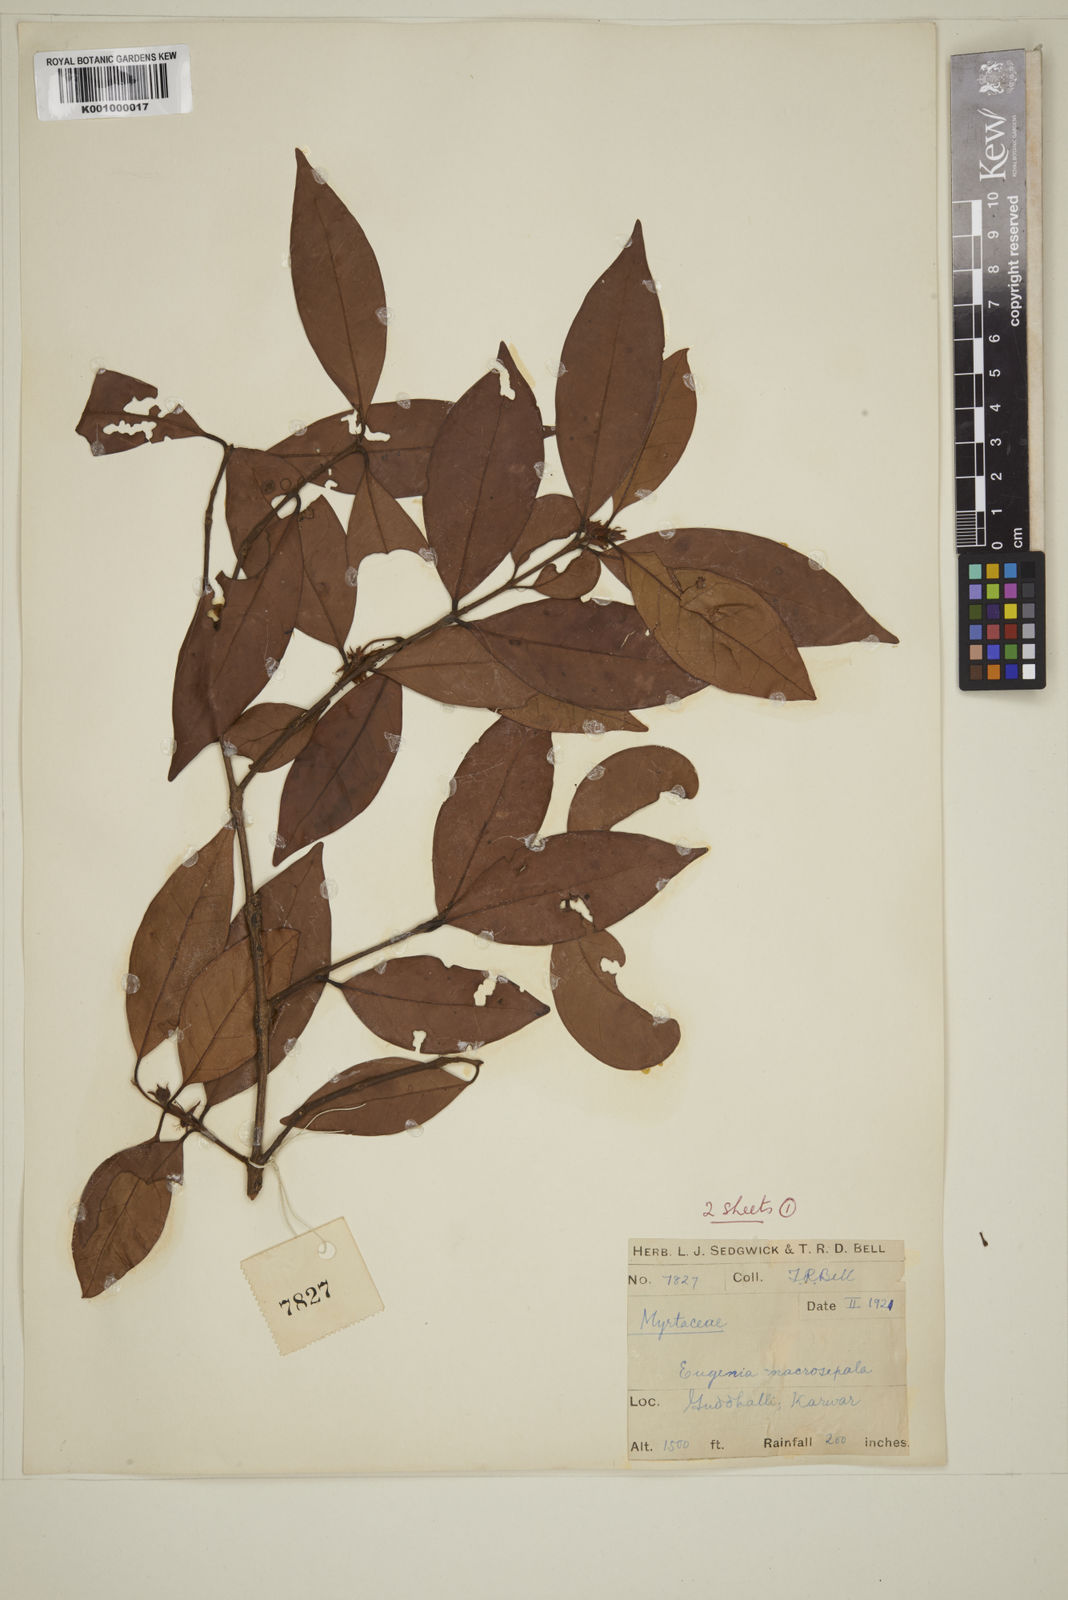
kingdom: Plantae
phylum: Tracheophyta
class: Magnoliopsida
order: Myrtales
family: Myrtaceae
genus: Eugenia
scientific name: Eugenia macrosepala
